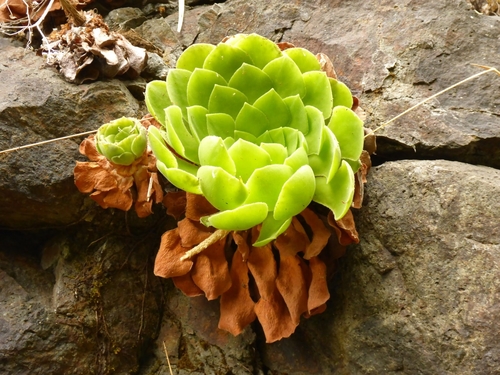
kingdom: Plantae
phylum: Tracheophyta
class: Magnoliopsida
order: Saxifragales
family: Crassulaceae
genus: Aeonium
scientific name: Aeonium glandulosum
